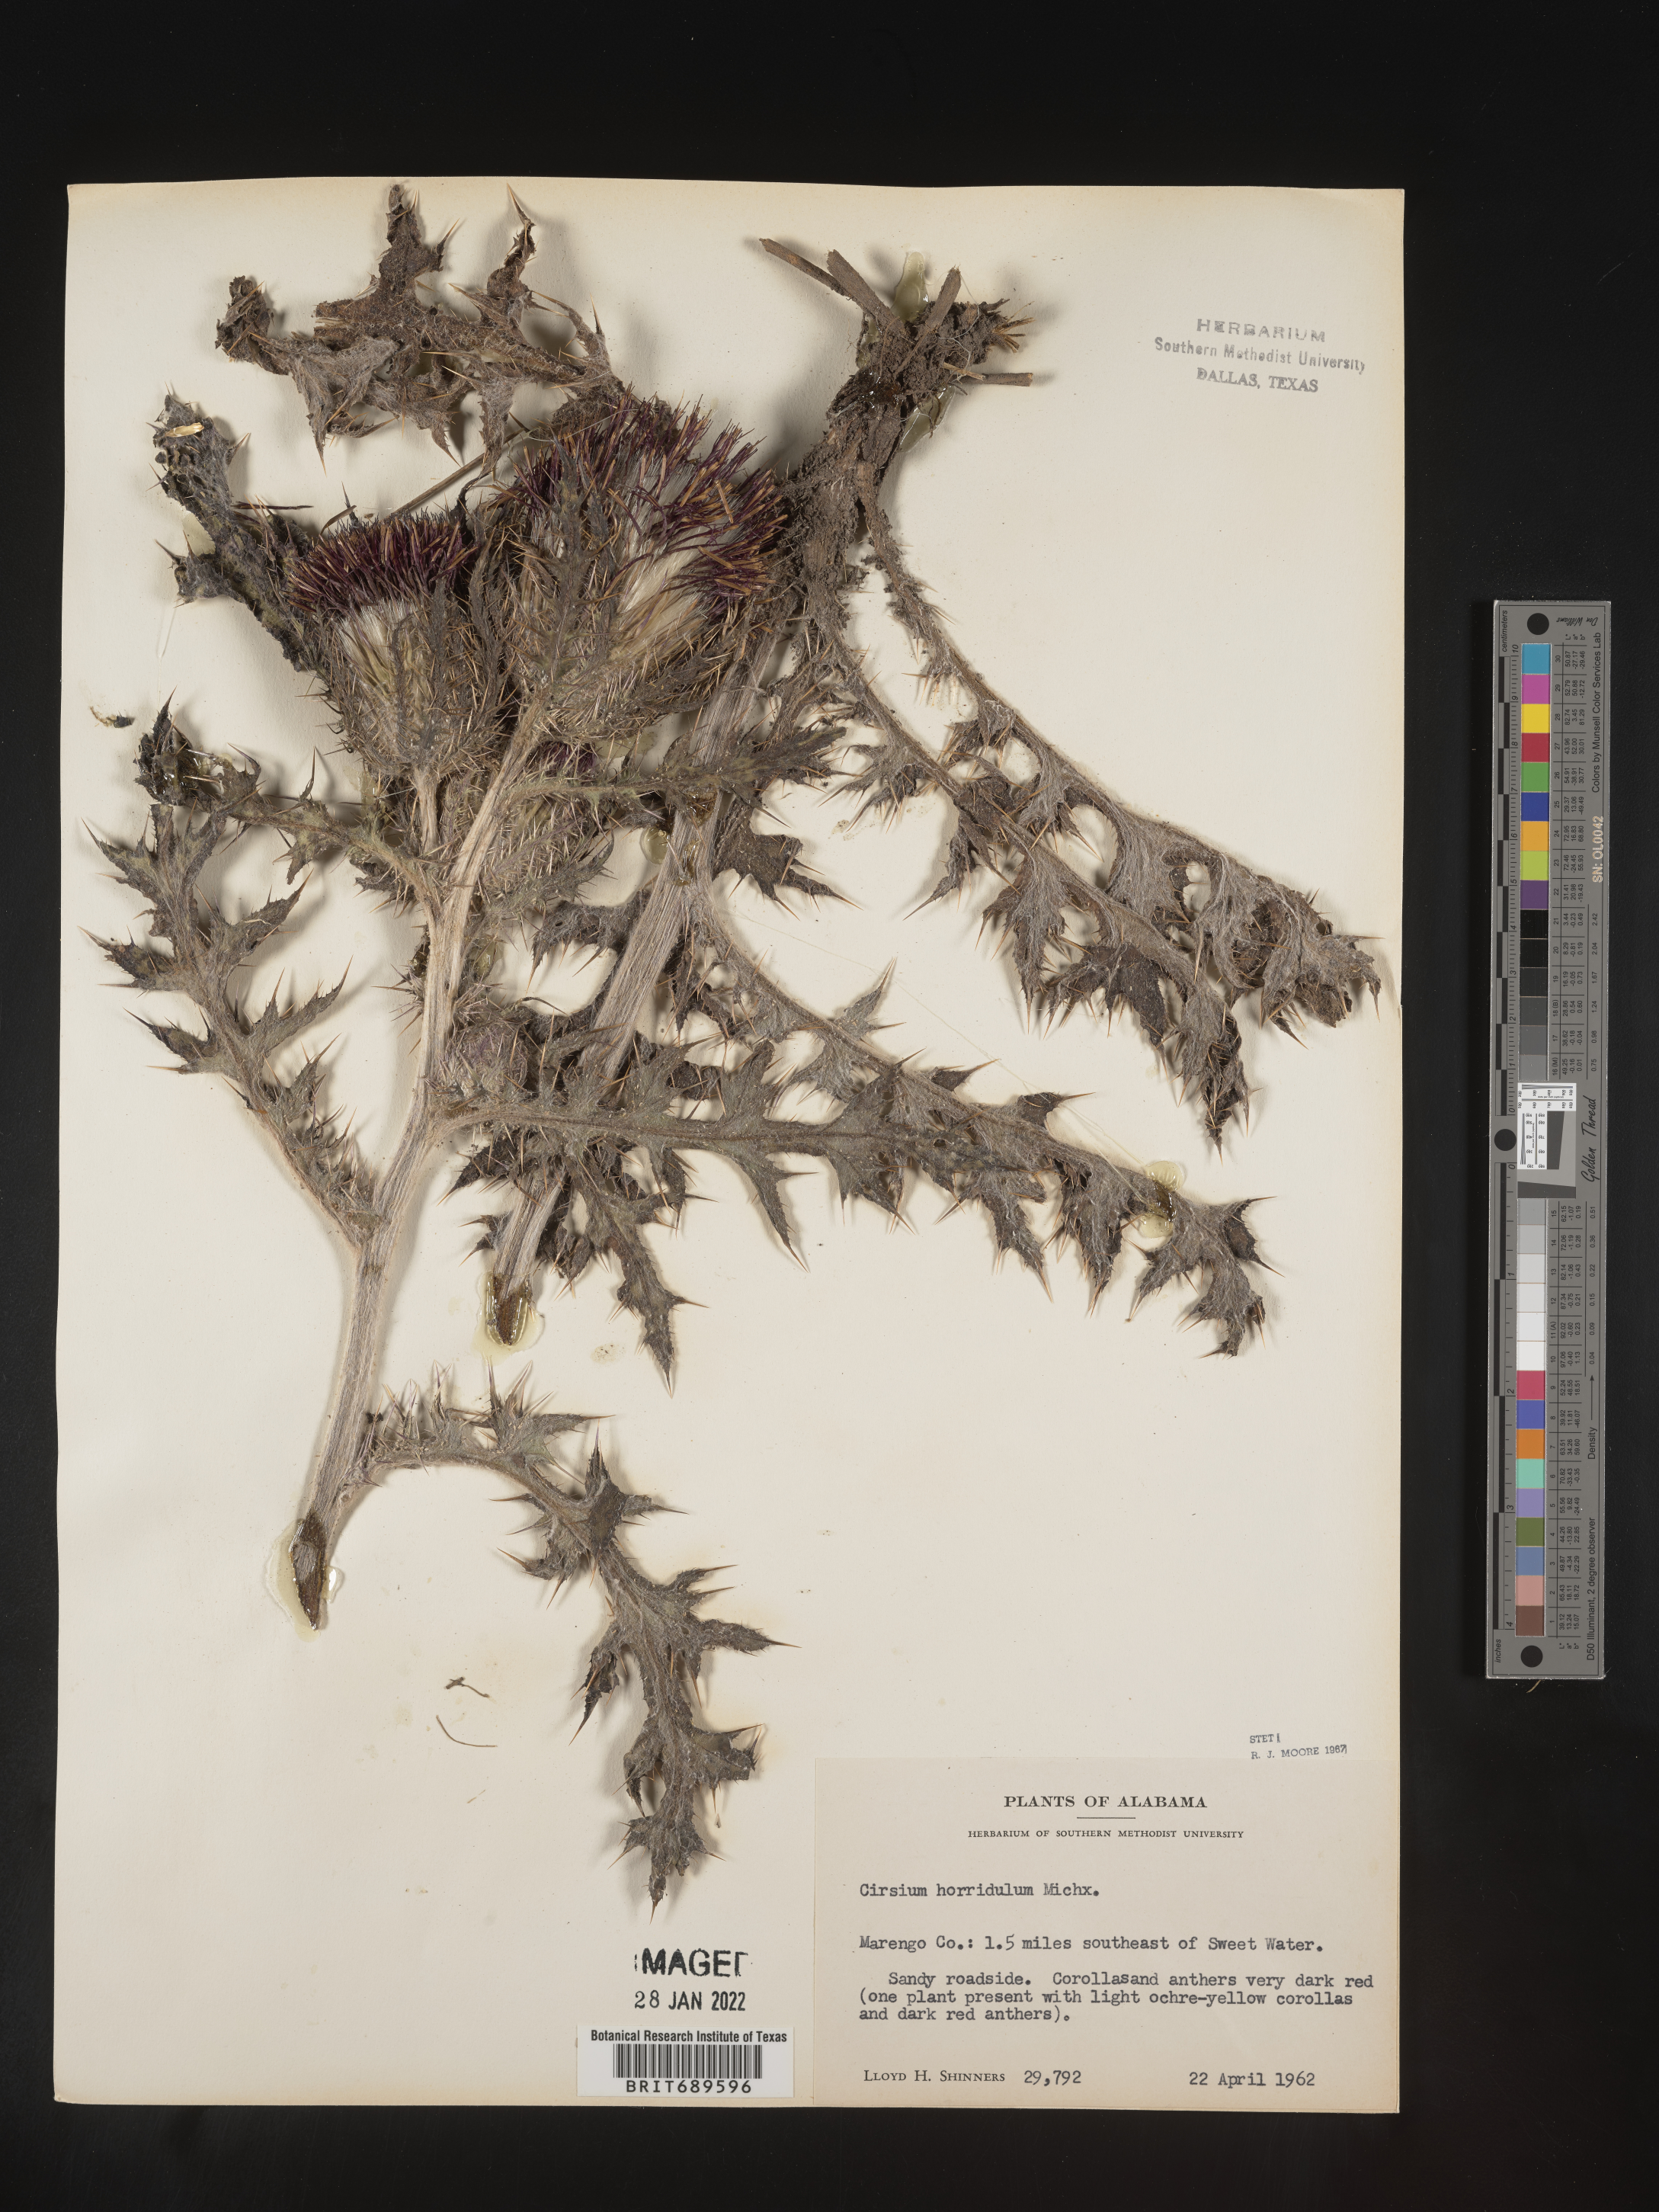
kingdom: Plantae
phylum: Tracheophyta
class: Magnoliopsida
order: Asterales
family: Asteraceae
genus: Cirsium
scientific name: Cirsium horridulum
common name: Bristly thistle
